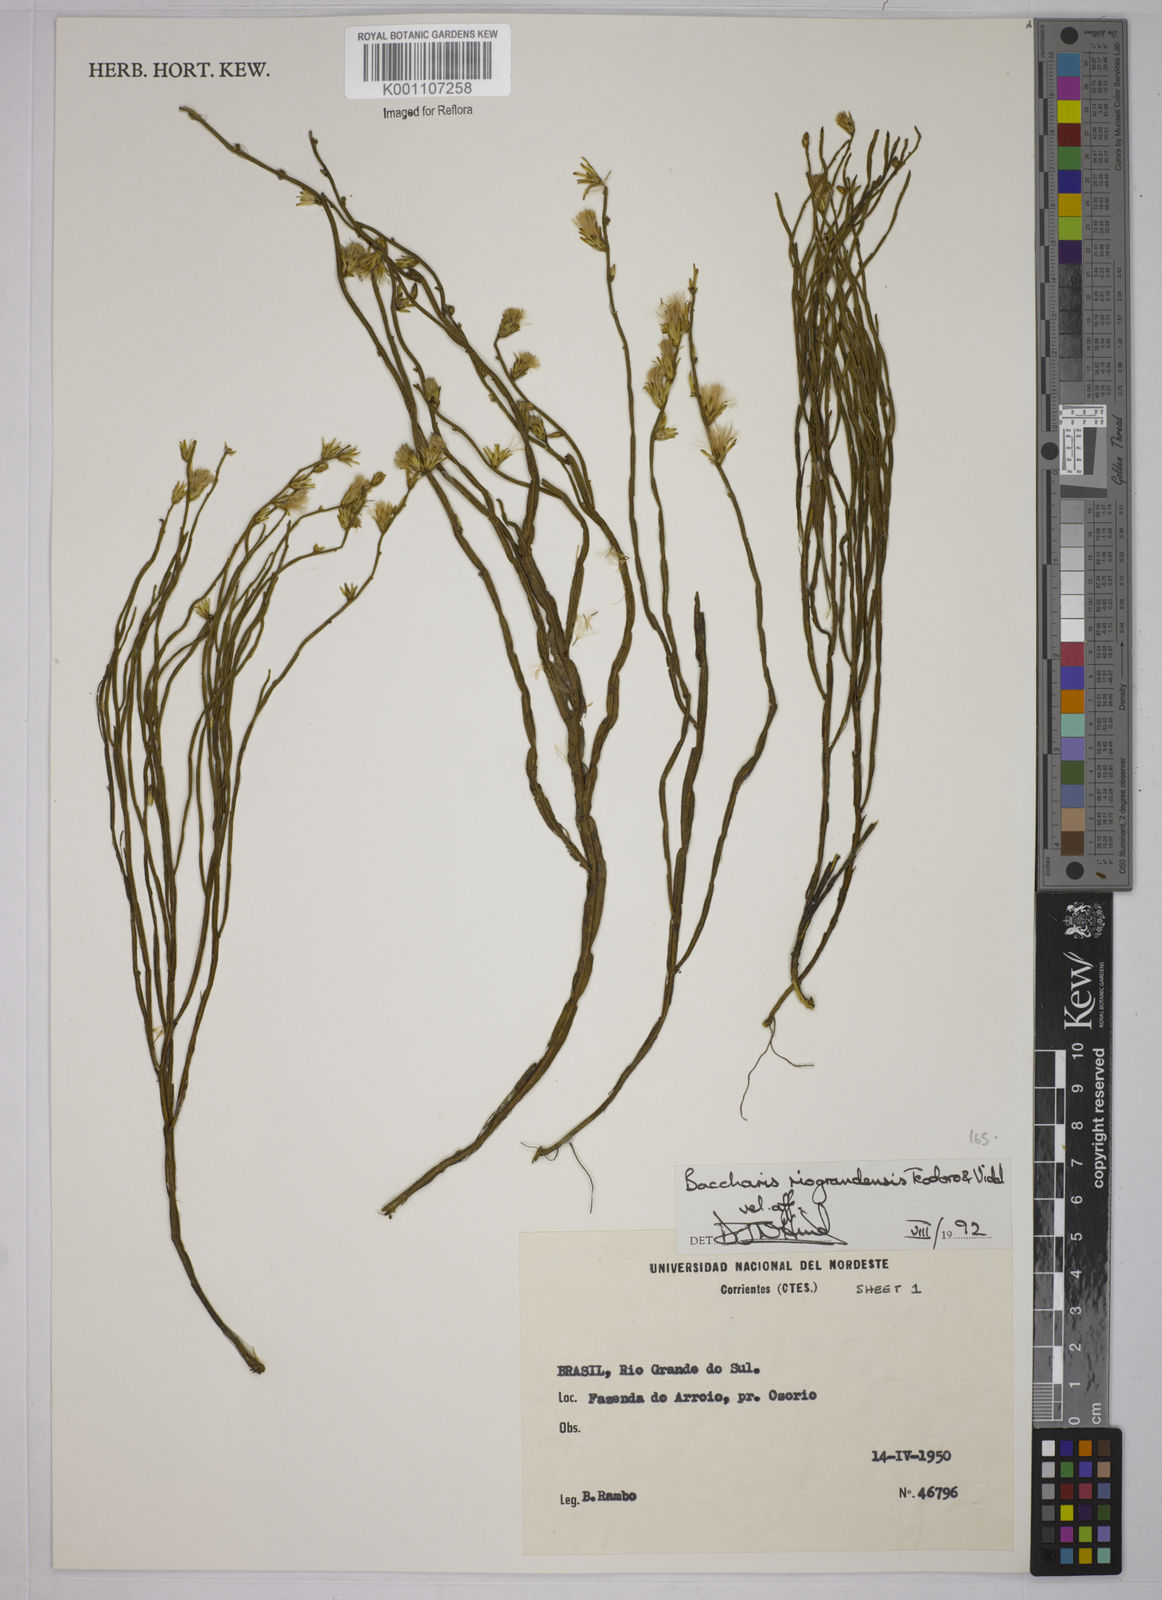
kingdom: Plantae
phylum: Tracheophyta
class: Magnoliopsida
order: Asterales
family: Asteraceae
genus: Baccharis
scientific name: Baccharis riograndensis
